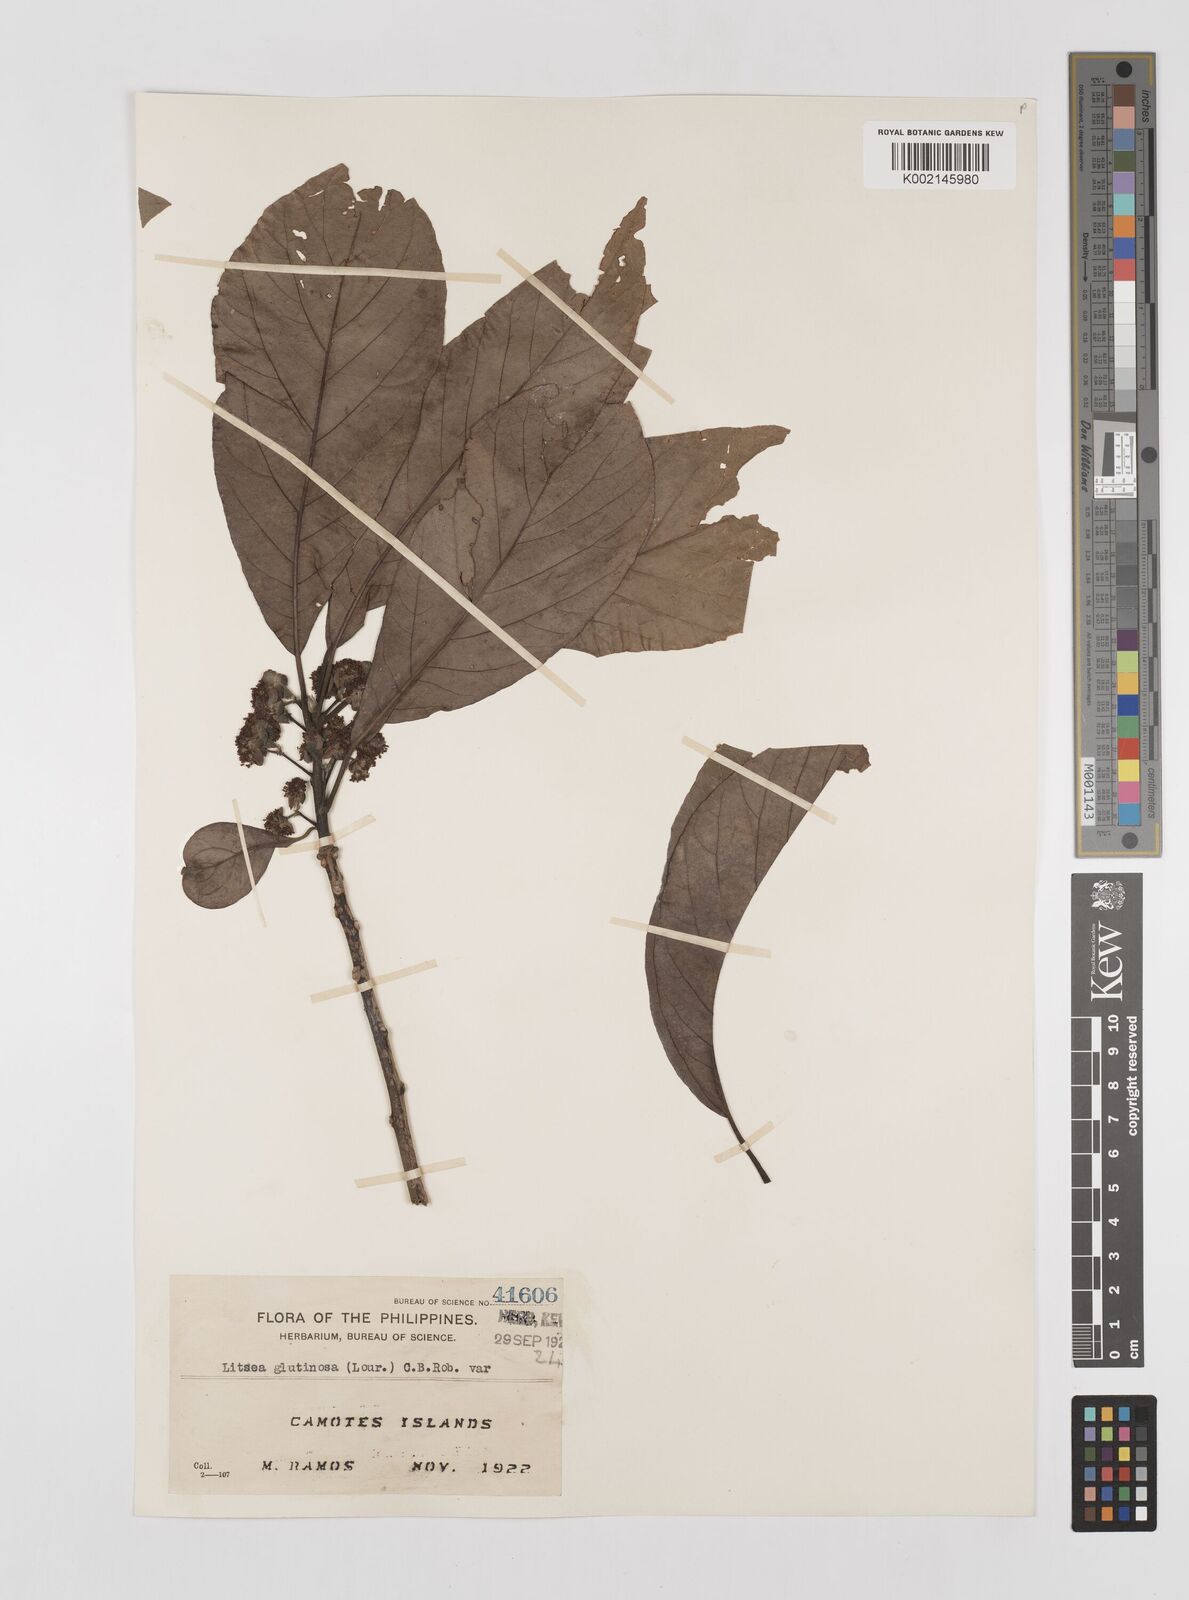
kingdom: Plantae
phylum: Tracheophyta
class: Magnoliopsida
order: Laurales
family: Lauraceae
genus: Litsea
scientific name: Litsea glutinosa
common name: Indian-laurel
